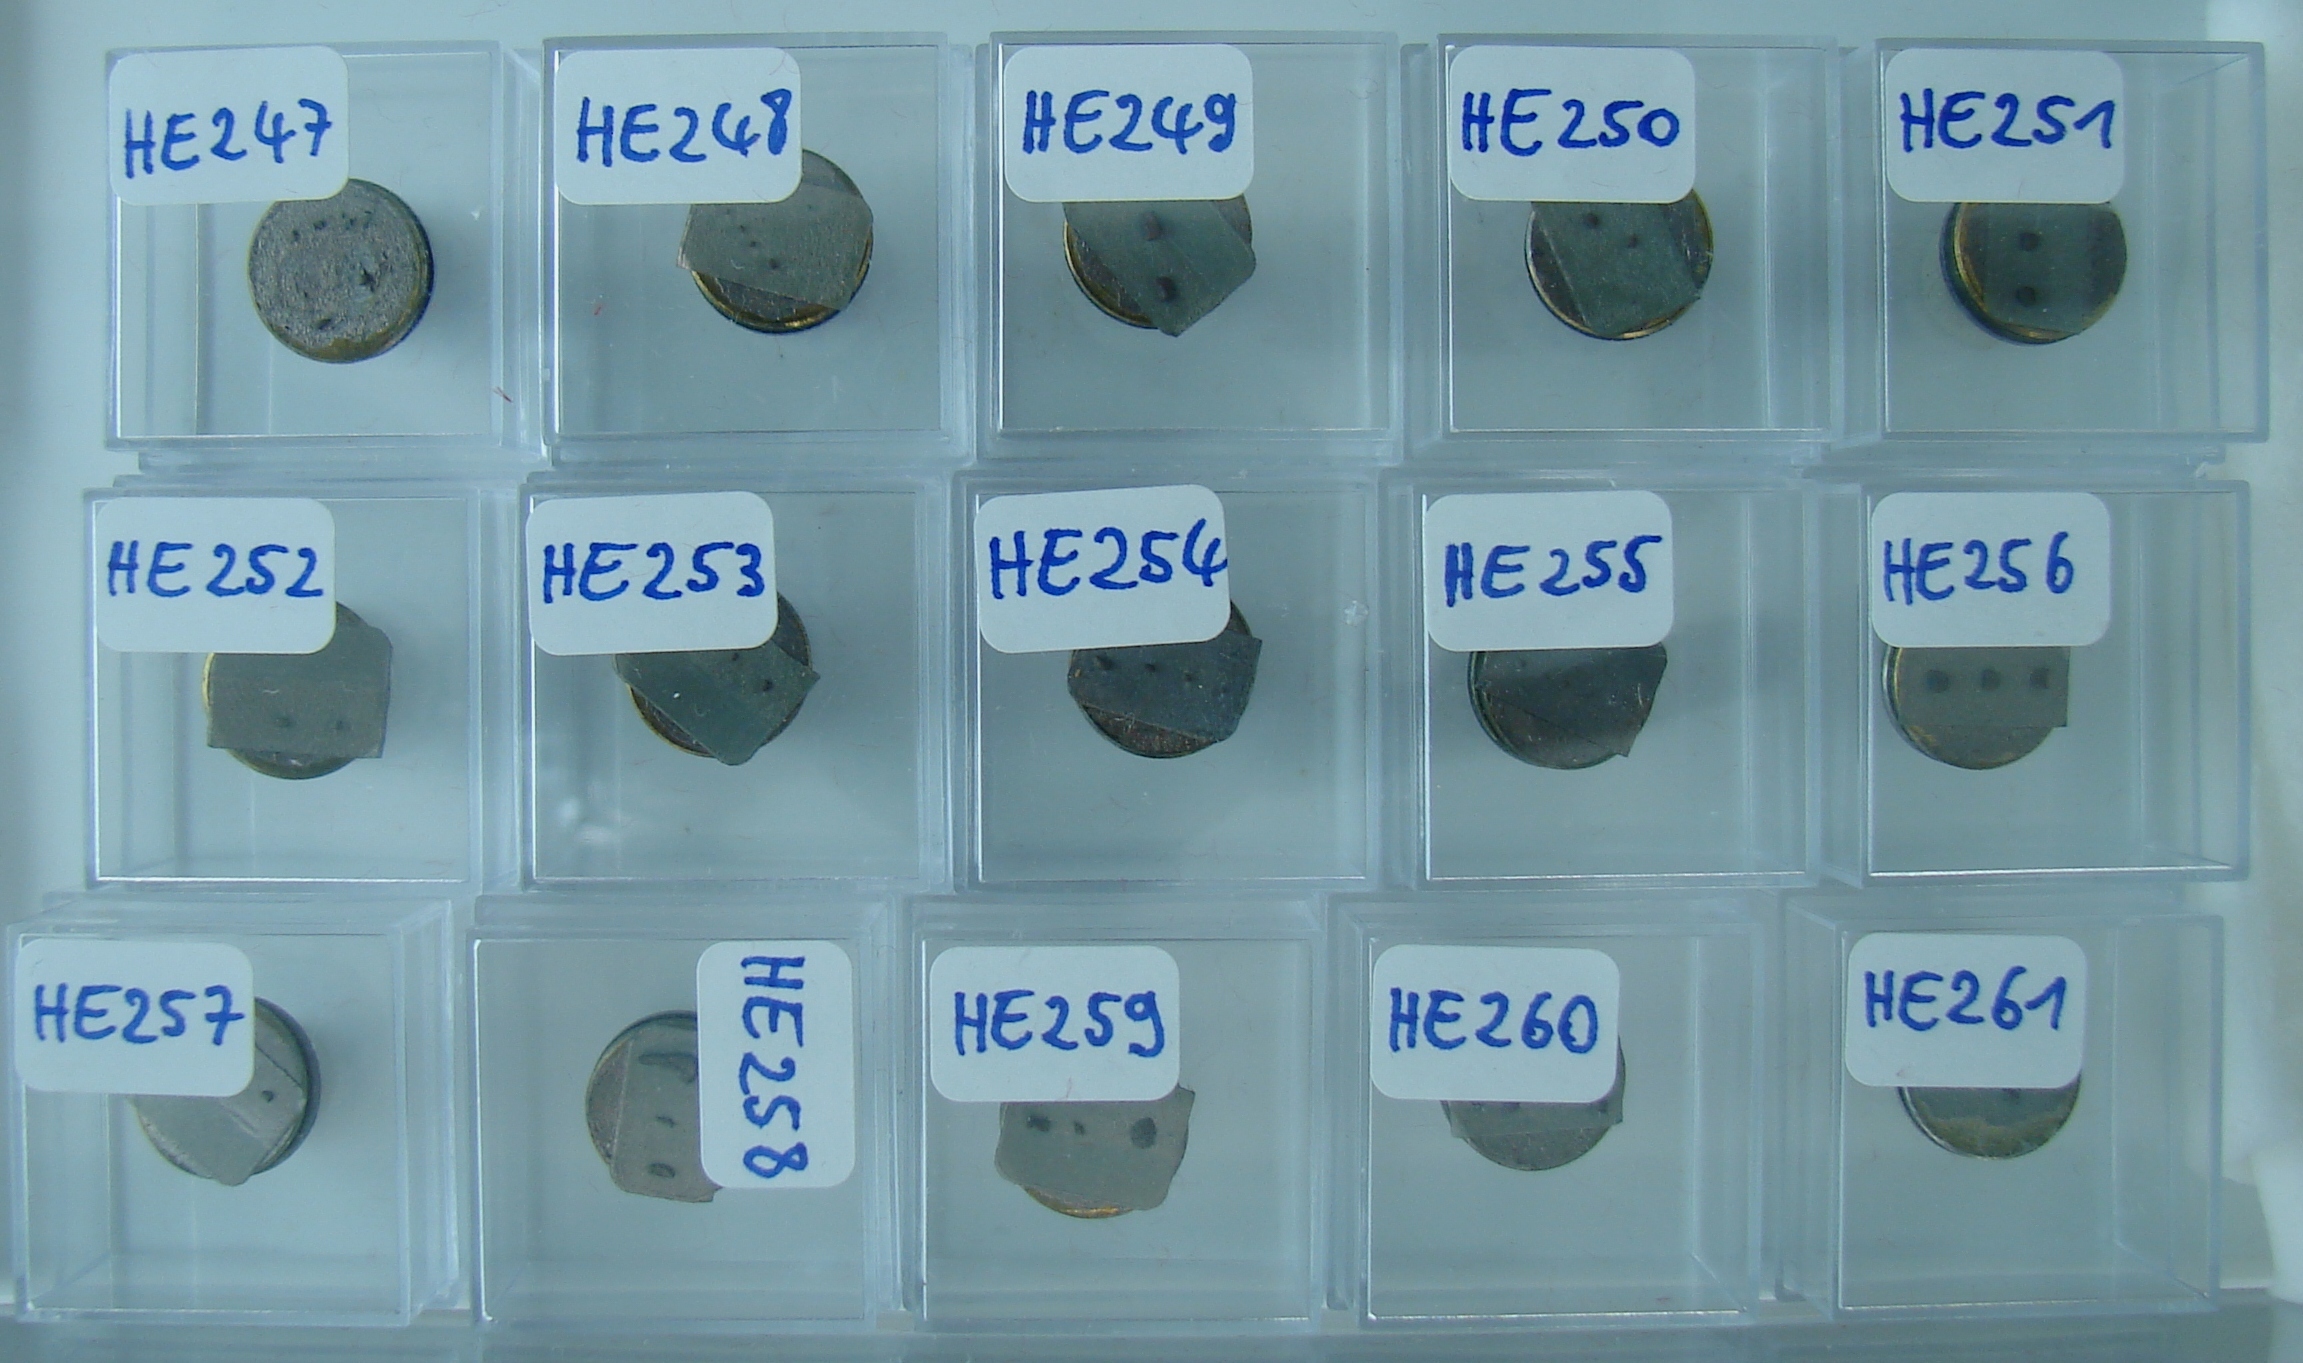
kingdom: Animalia
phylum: Echinodermata
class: Ophiuroidea
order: Ophiacanthida
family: Ophiodermatidae
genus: Ophioderma
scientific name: Ophioderma delsatei
